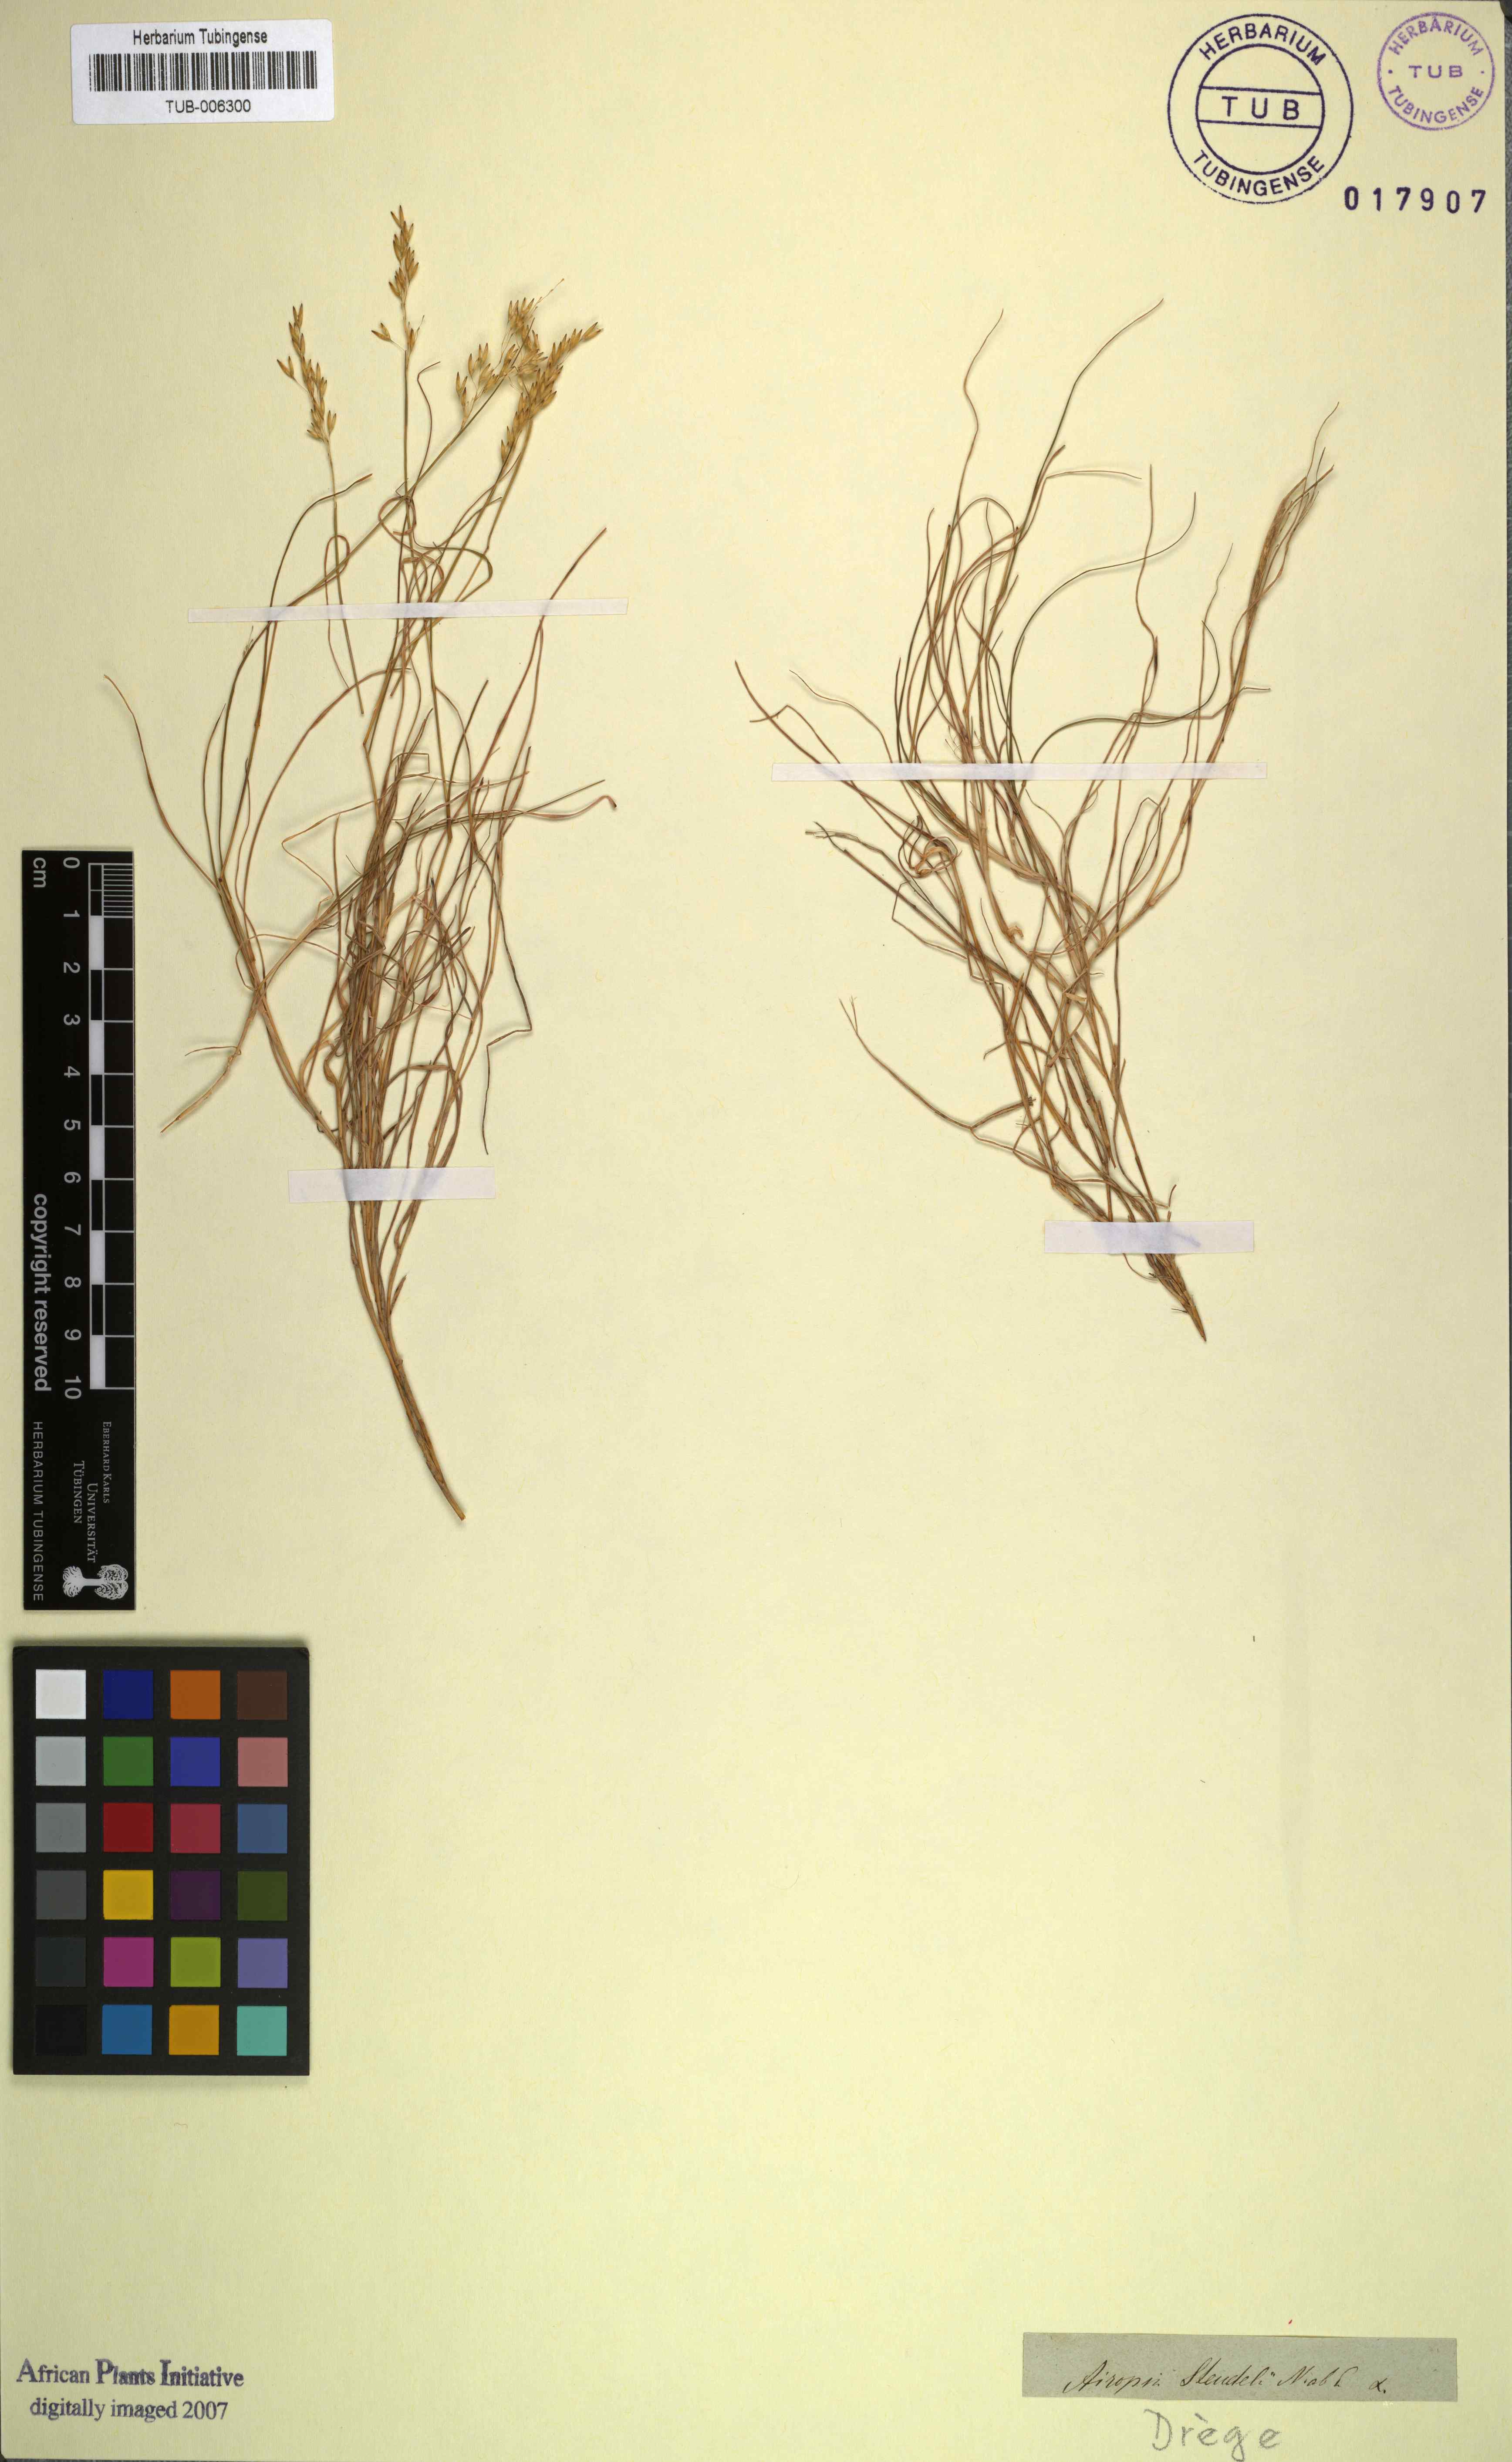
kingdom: Plantae
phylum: Tracheophyta
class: Liliopsida
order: Poales
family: Poaceae
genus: Pentameris
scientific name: Pentameris malouinensis
